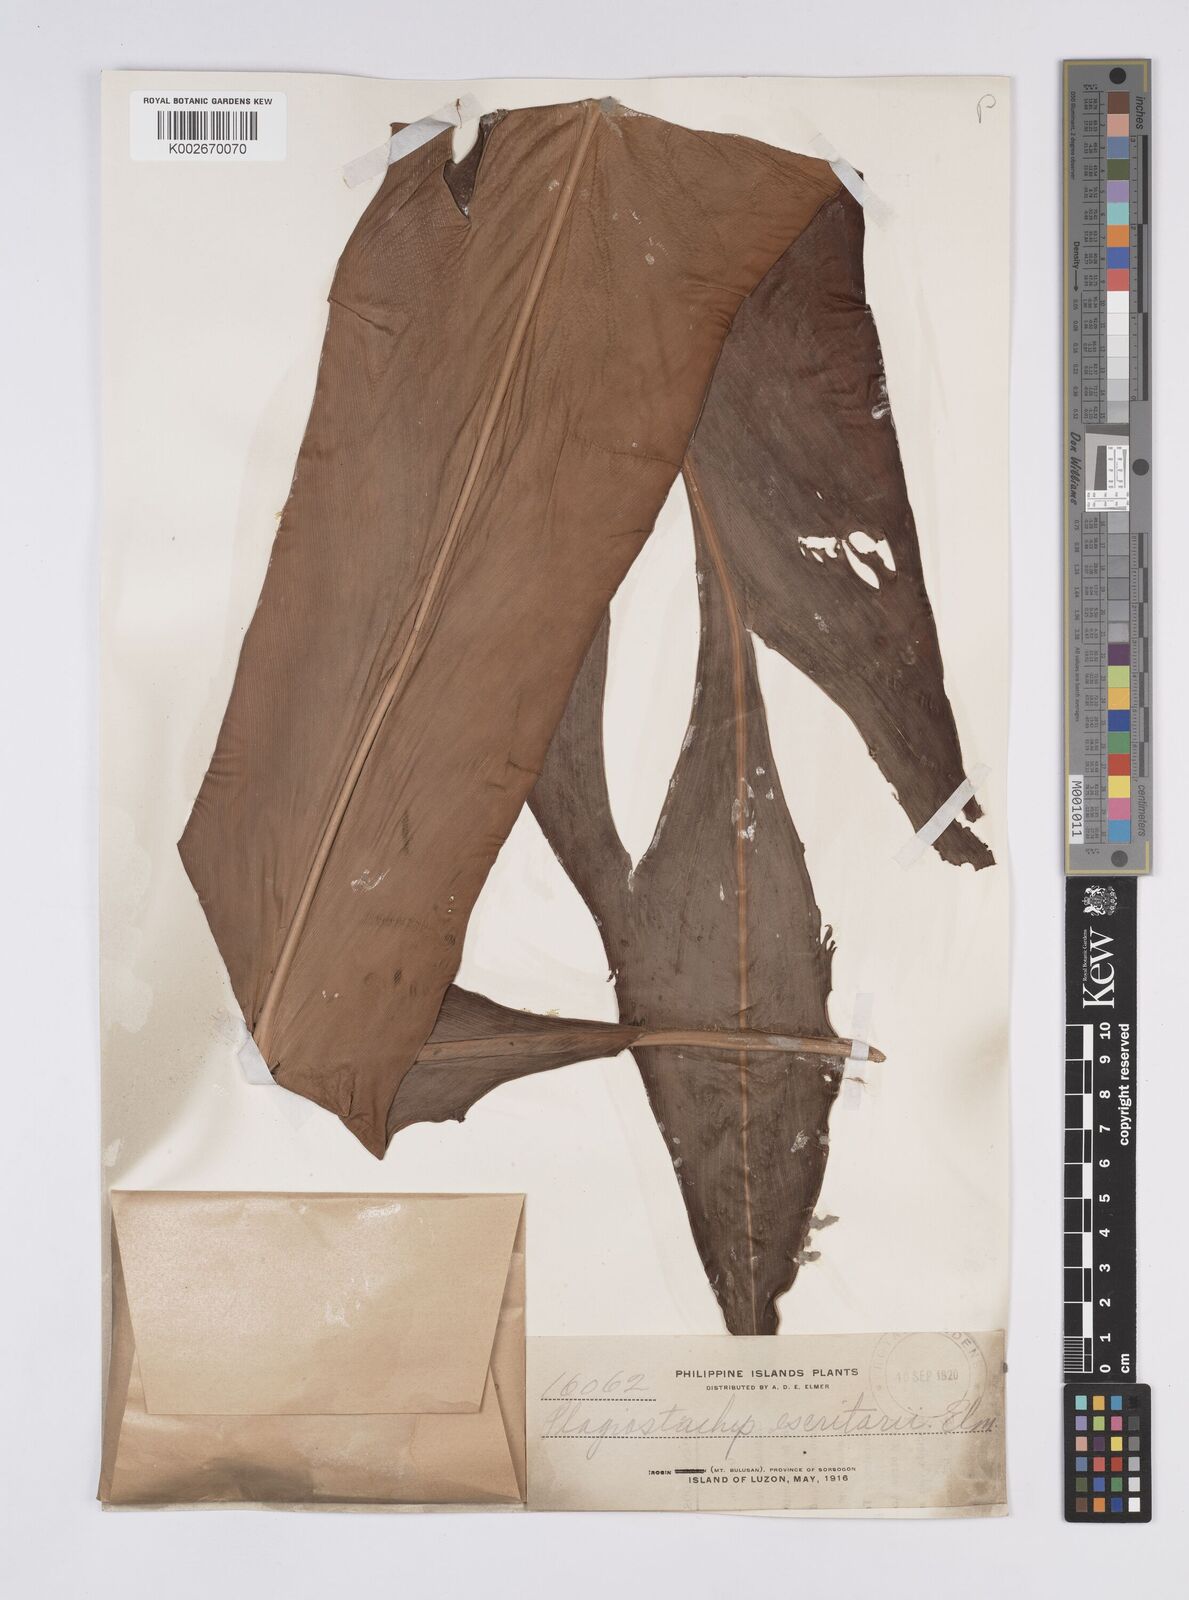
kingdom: Plantae
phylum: Tracheophyta
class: Liliopsida
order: Zingiberales
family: Zingiberaceae
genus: Plagiostachys
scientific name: Plagiostachys escritorii
